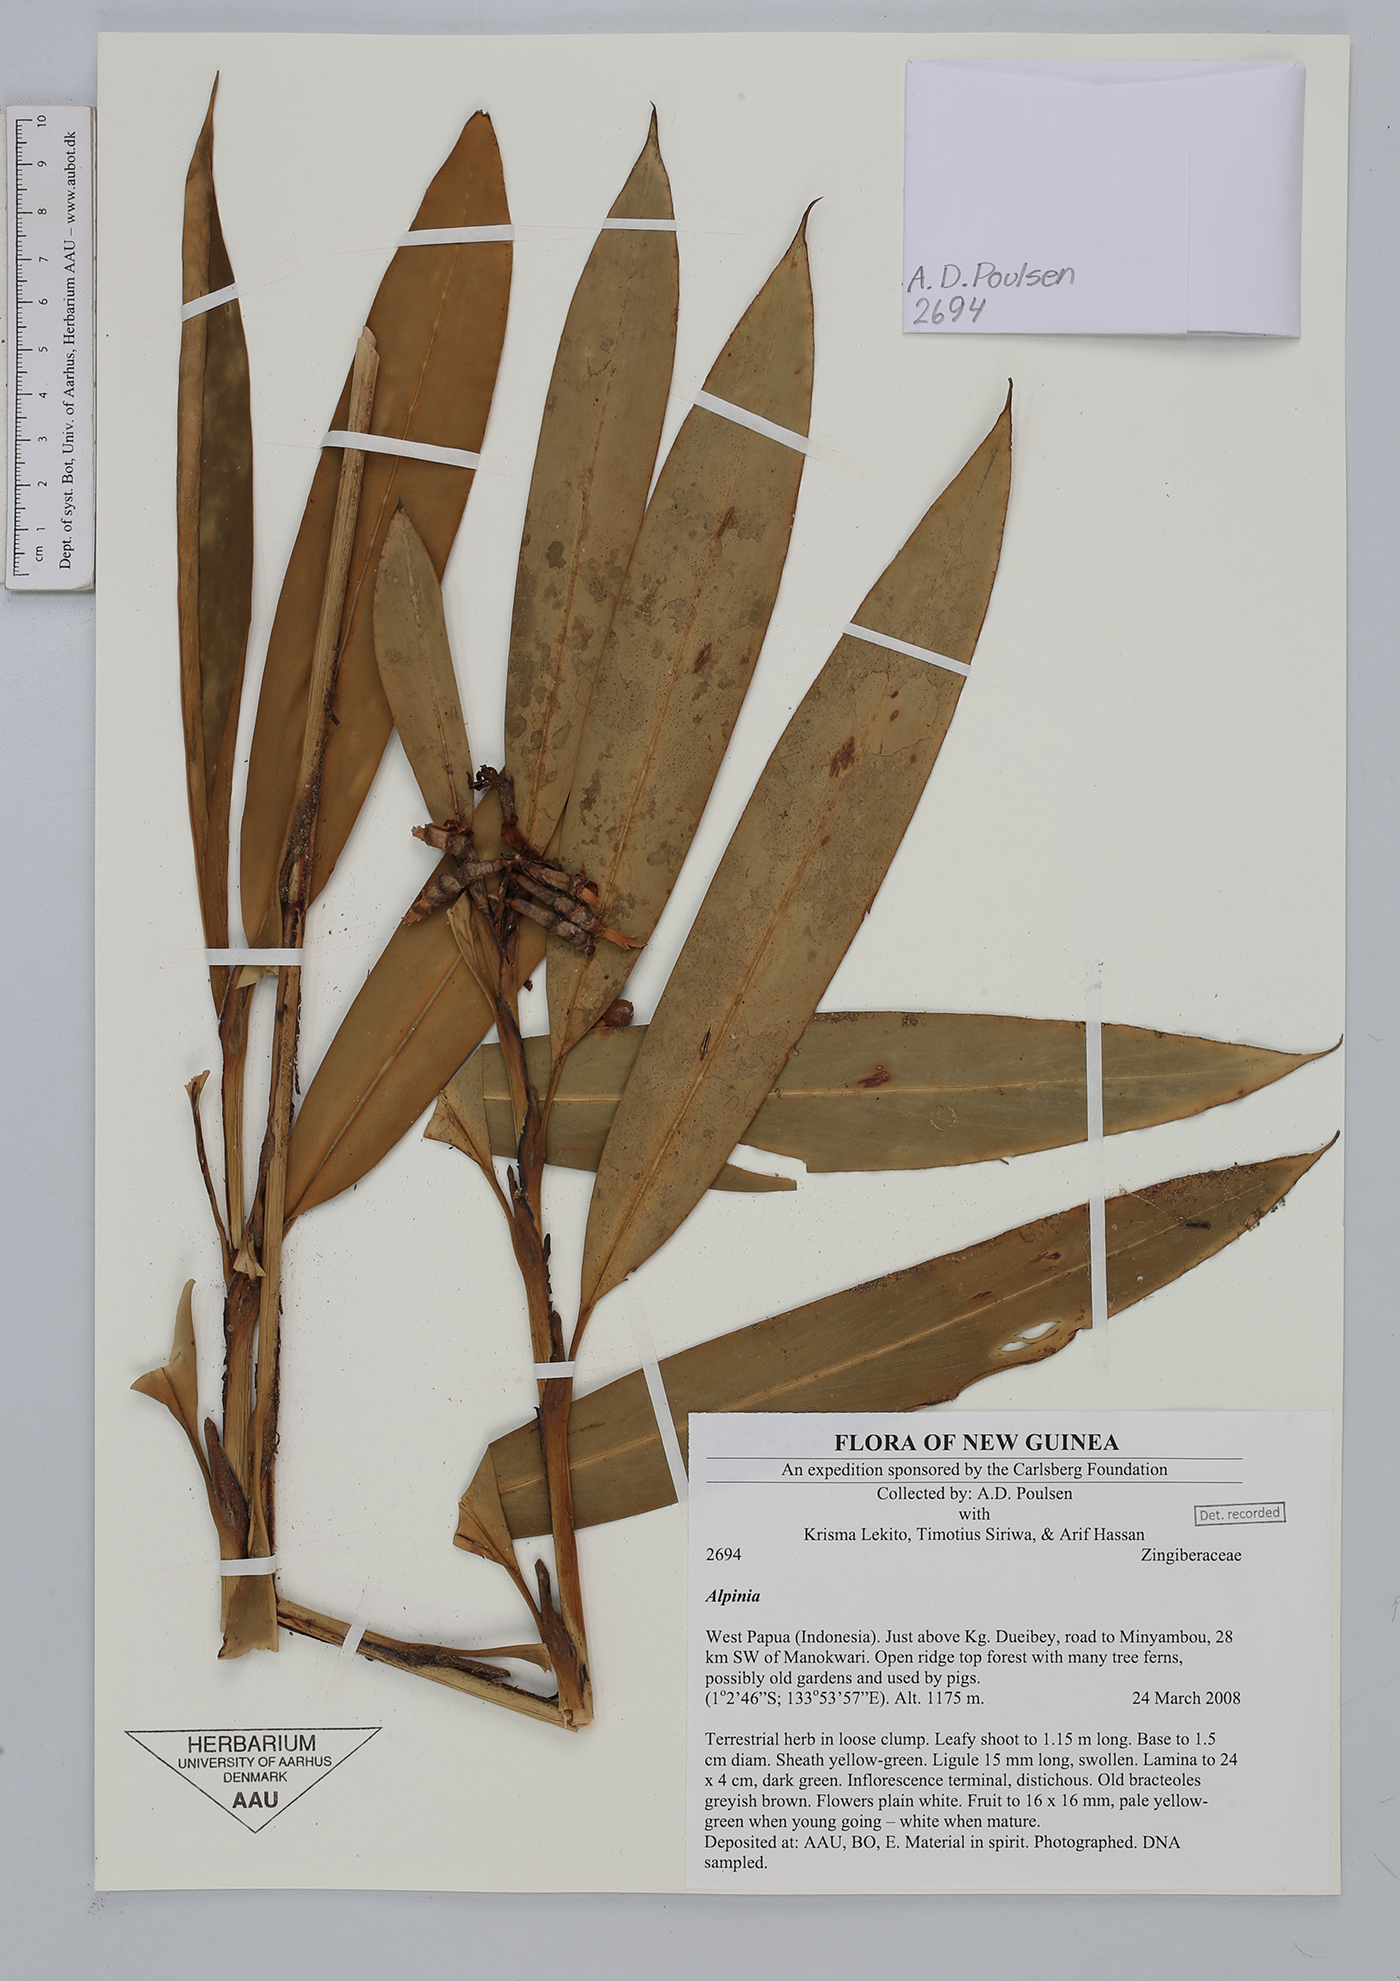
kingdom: Plantae
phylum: Tracheophyta
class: Liliopsida
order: Zingiberales
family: Zingiberaceae
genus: Alpinia
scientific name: Alpinia
